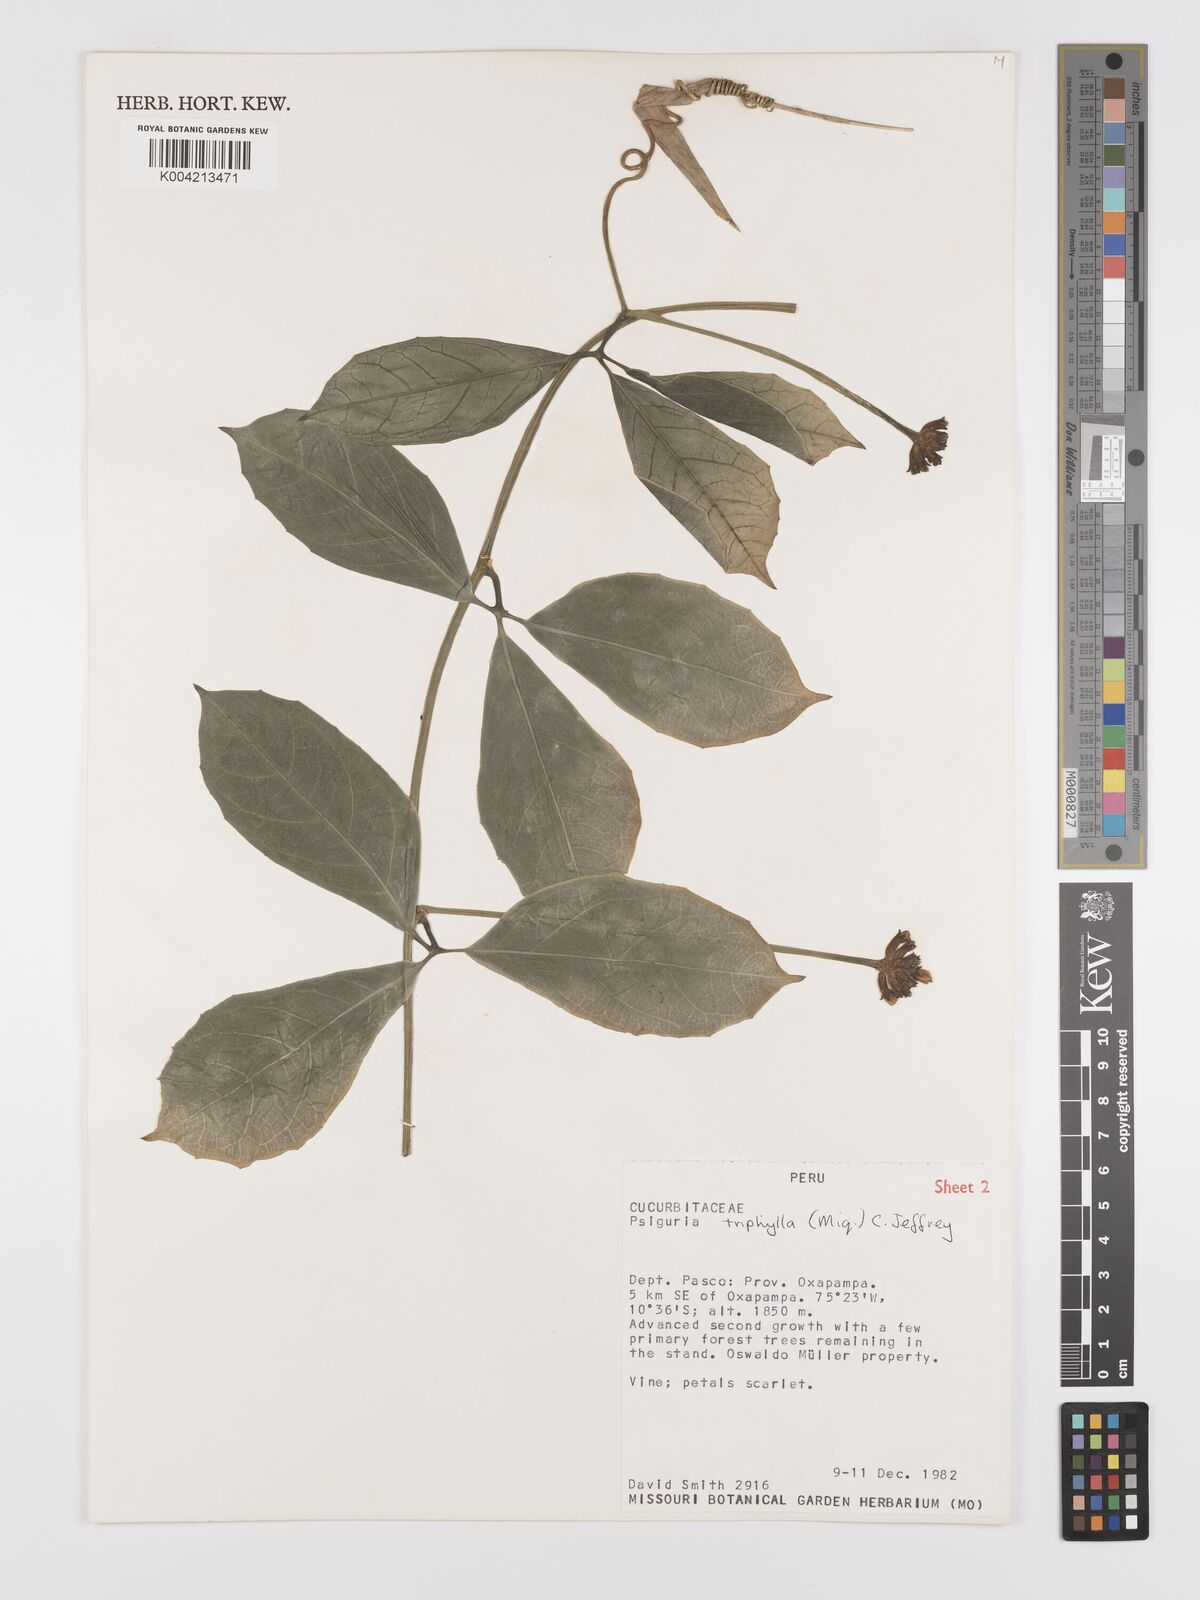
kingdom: Plantae
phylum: Tracheophyta
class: Magnoliopsida
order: Cucurbitales
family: Cucurbitaceae
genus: Psiguria
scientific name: Psiguria triphylla
